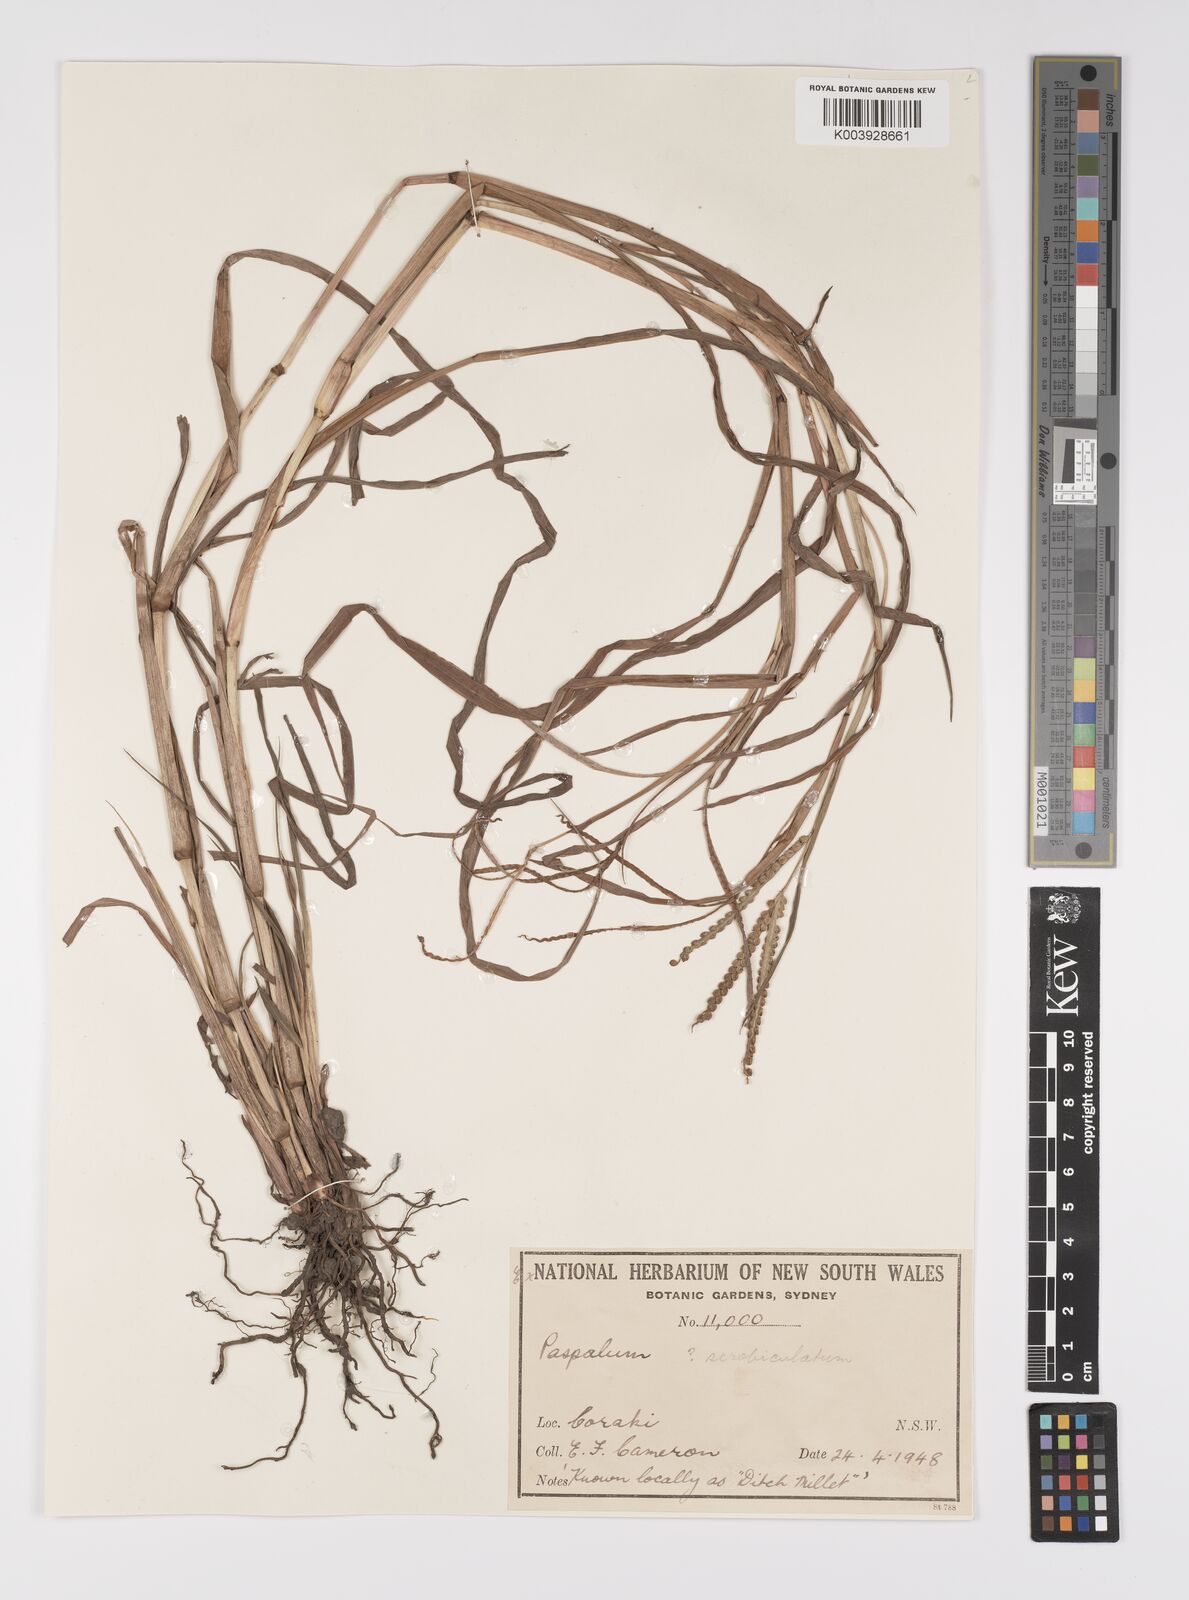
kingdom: Plantae
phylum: Tracheophyta
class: Liliopsida
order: Poales
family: Poaceae
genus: Paspalum
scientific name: Paspalum scrobiculatum
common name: Kodo millet
